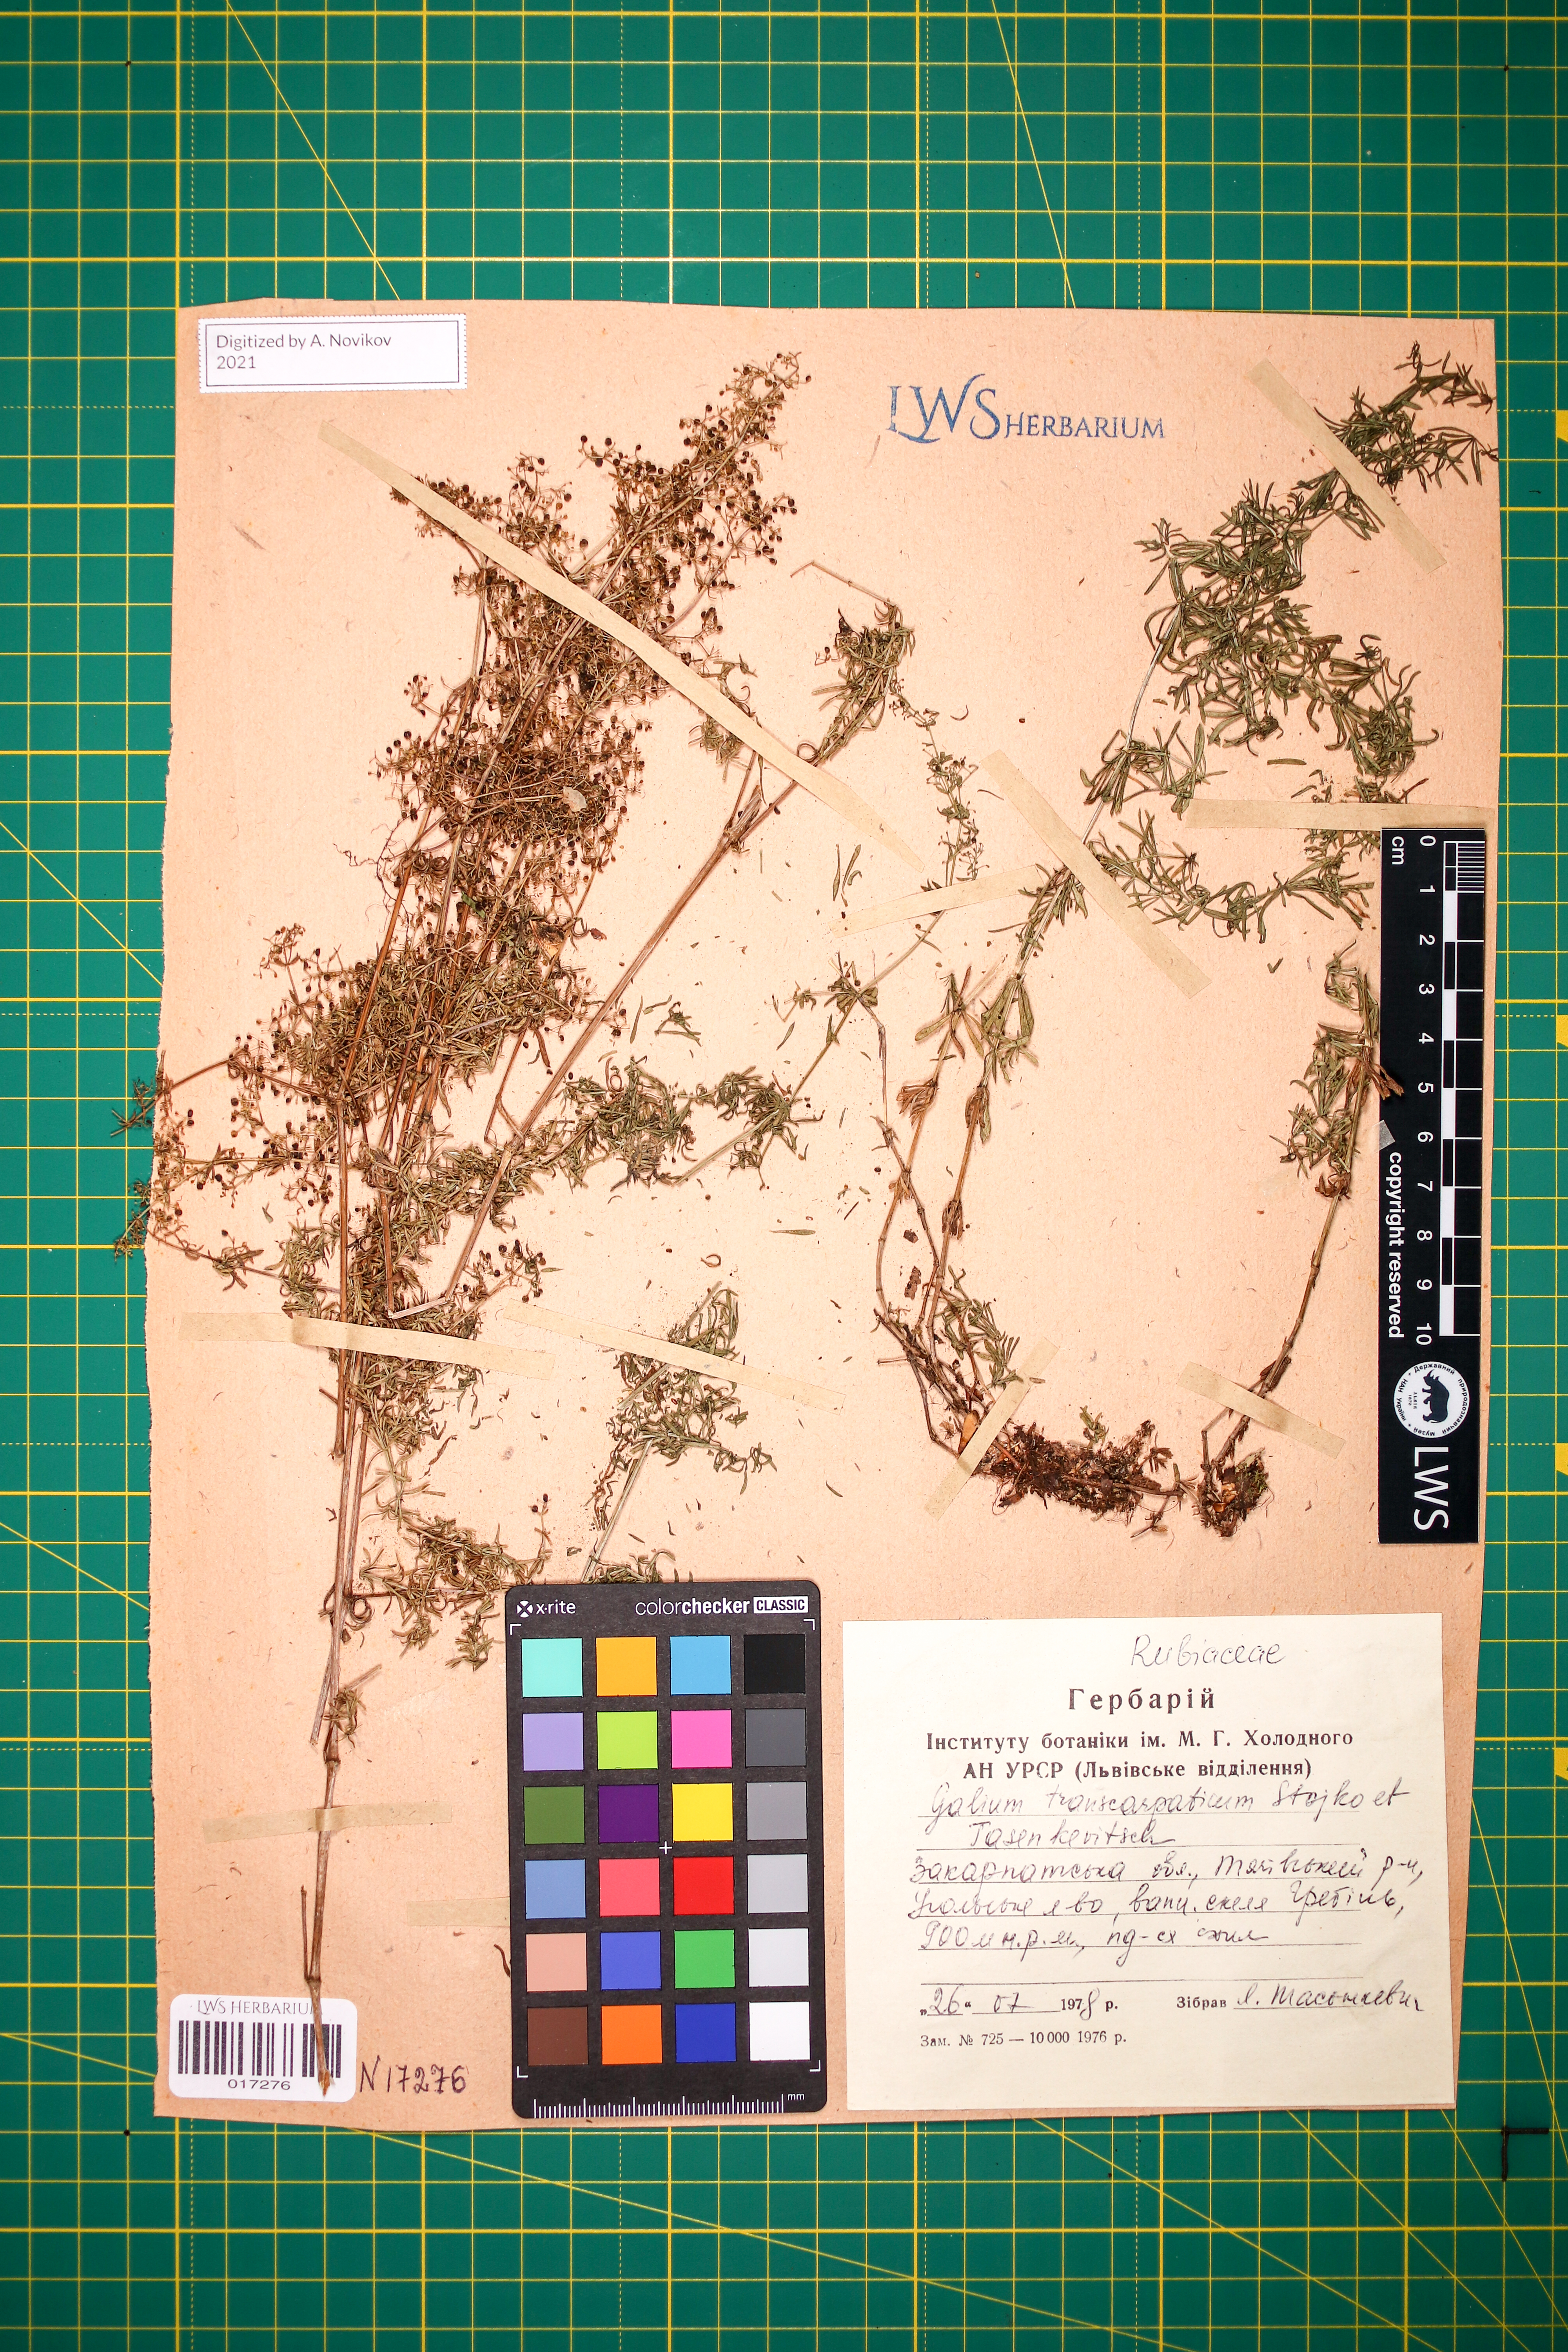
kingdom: Plantae
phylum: Tracheophyta
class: Magnoliopsida
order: Gentianales
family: Rubiaceae
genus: Galium
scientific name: Galium transcarpaticum
